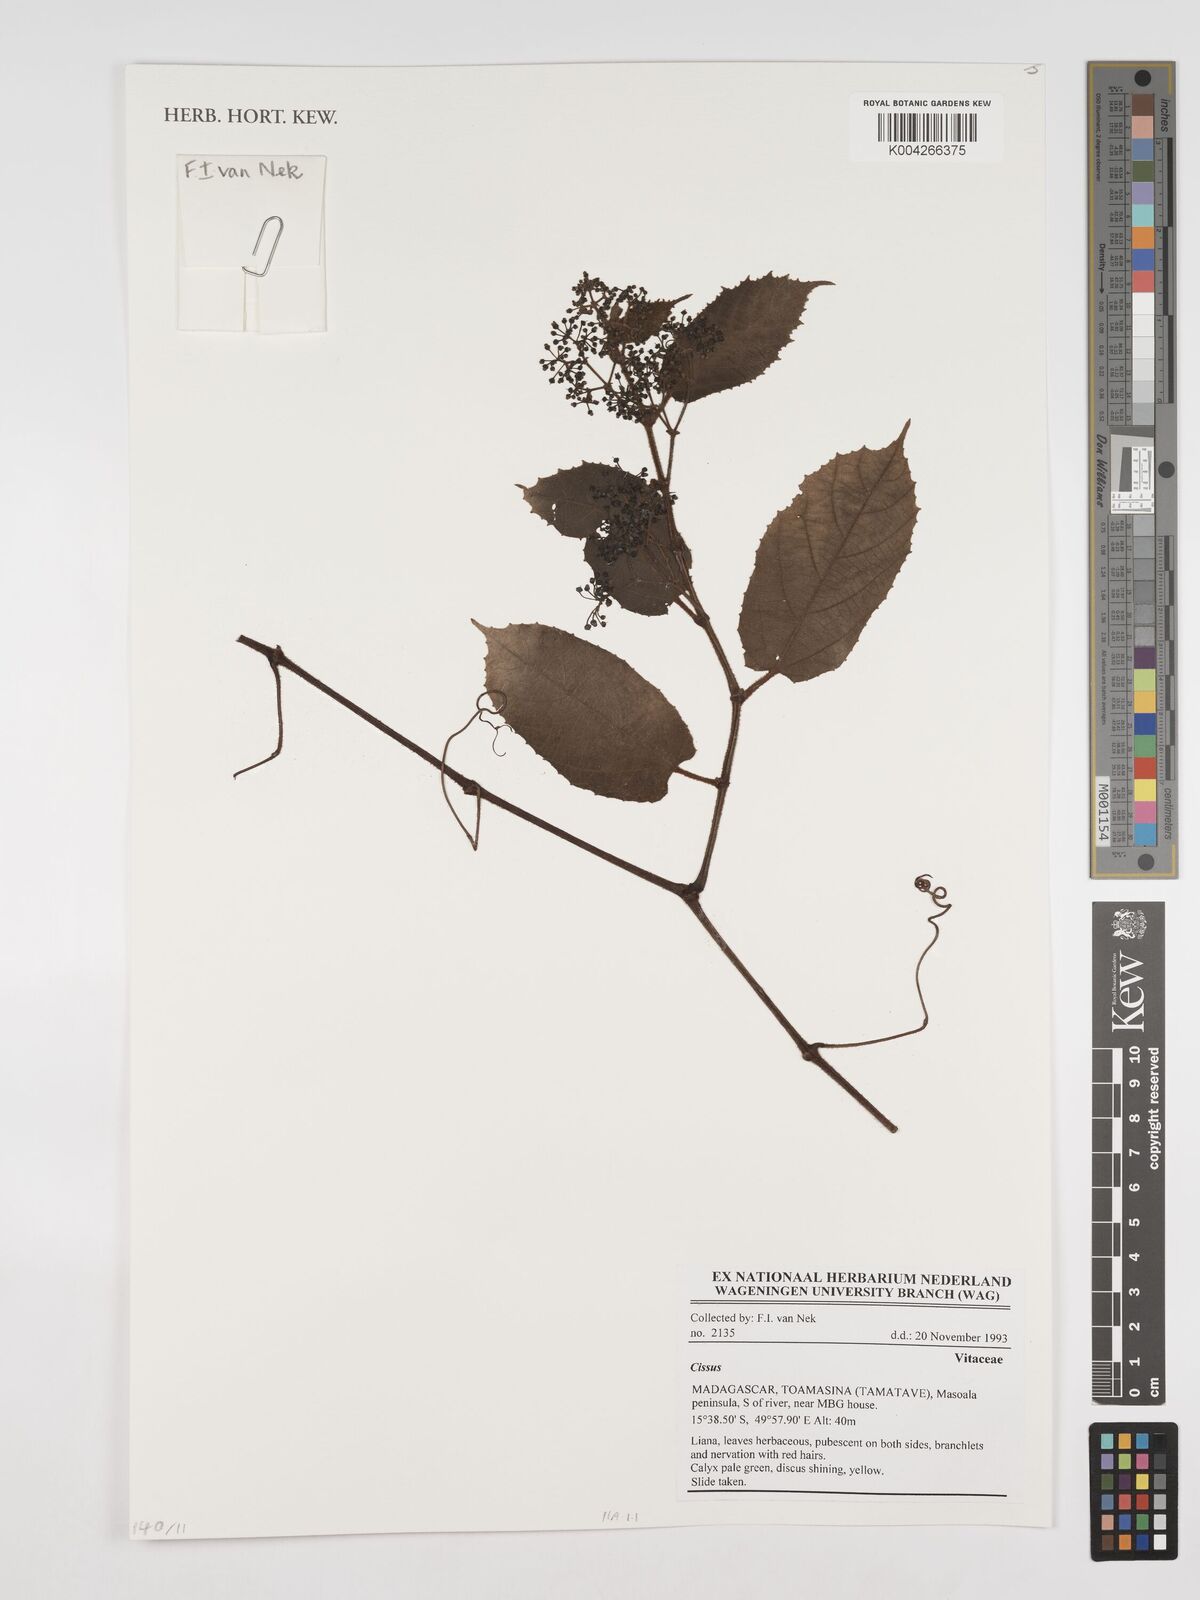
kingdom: Plantae
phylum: Tracheophyta
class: Magnoliopsida
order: Vitales
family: Vitaceae
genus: Cissus
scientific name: Cissus
